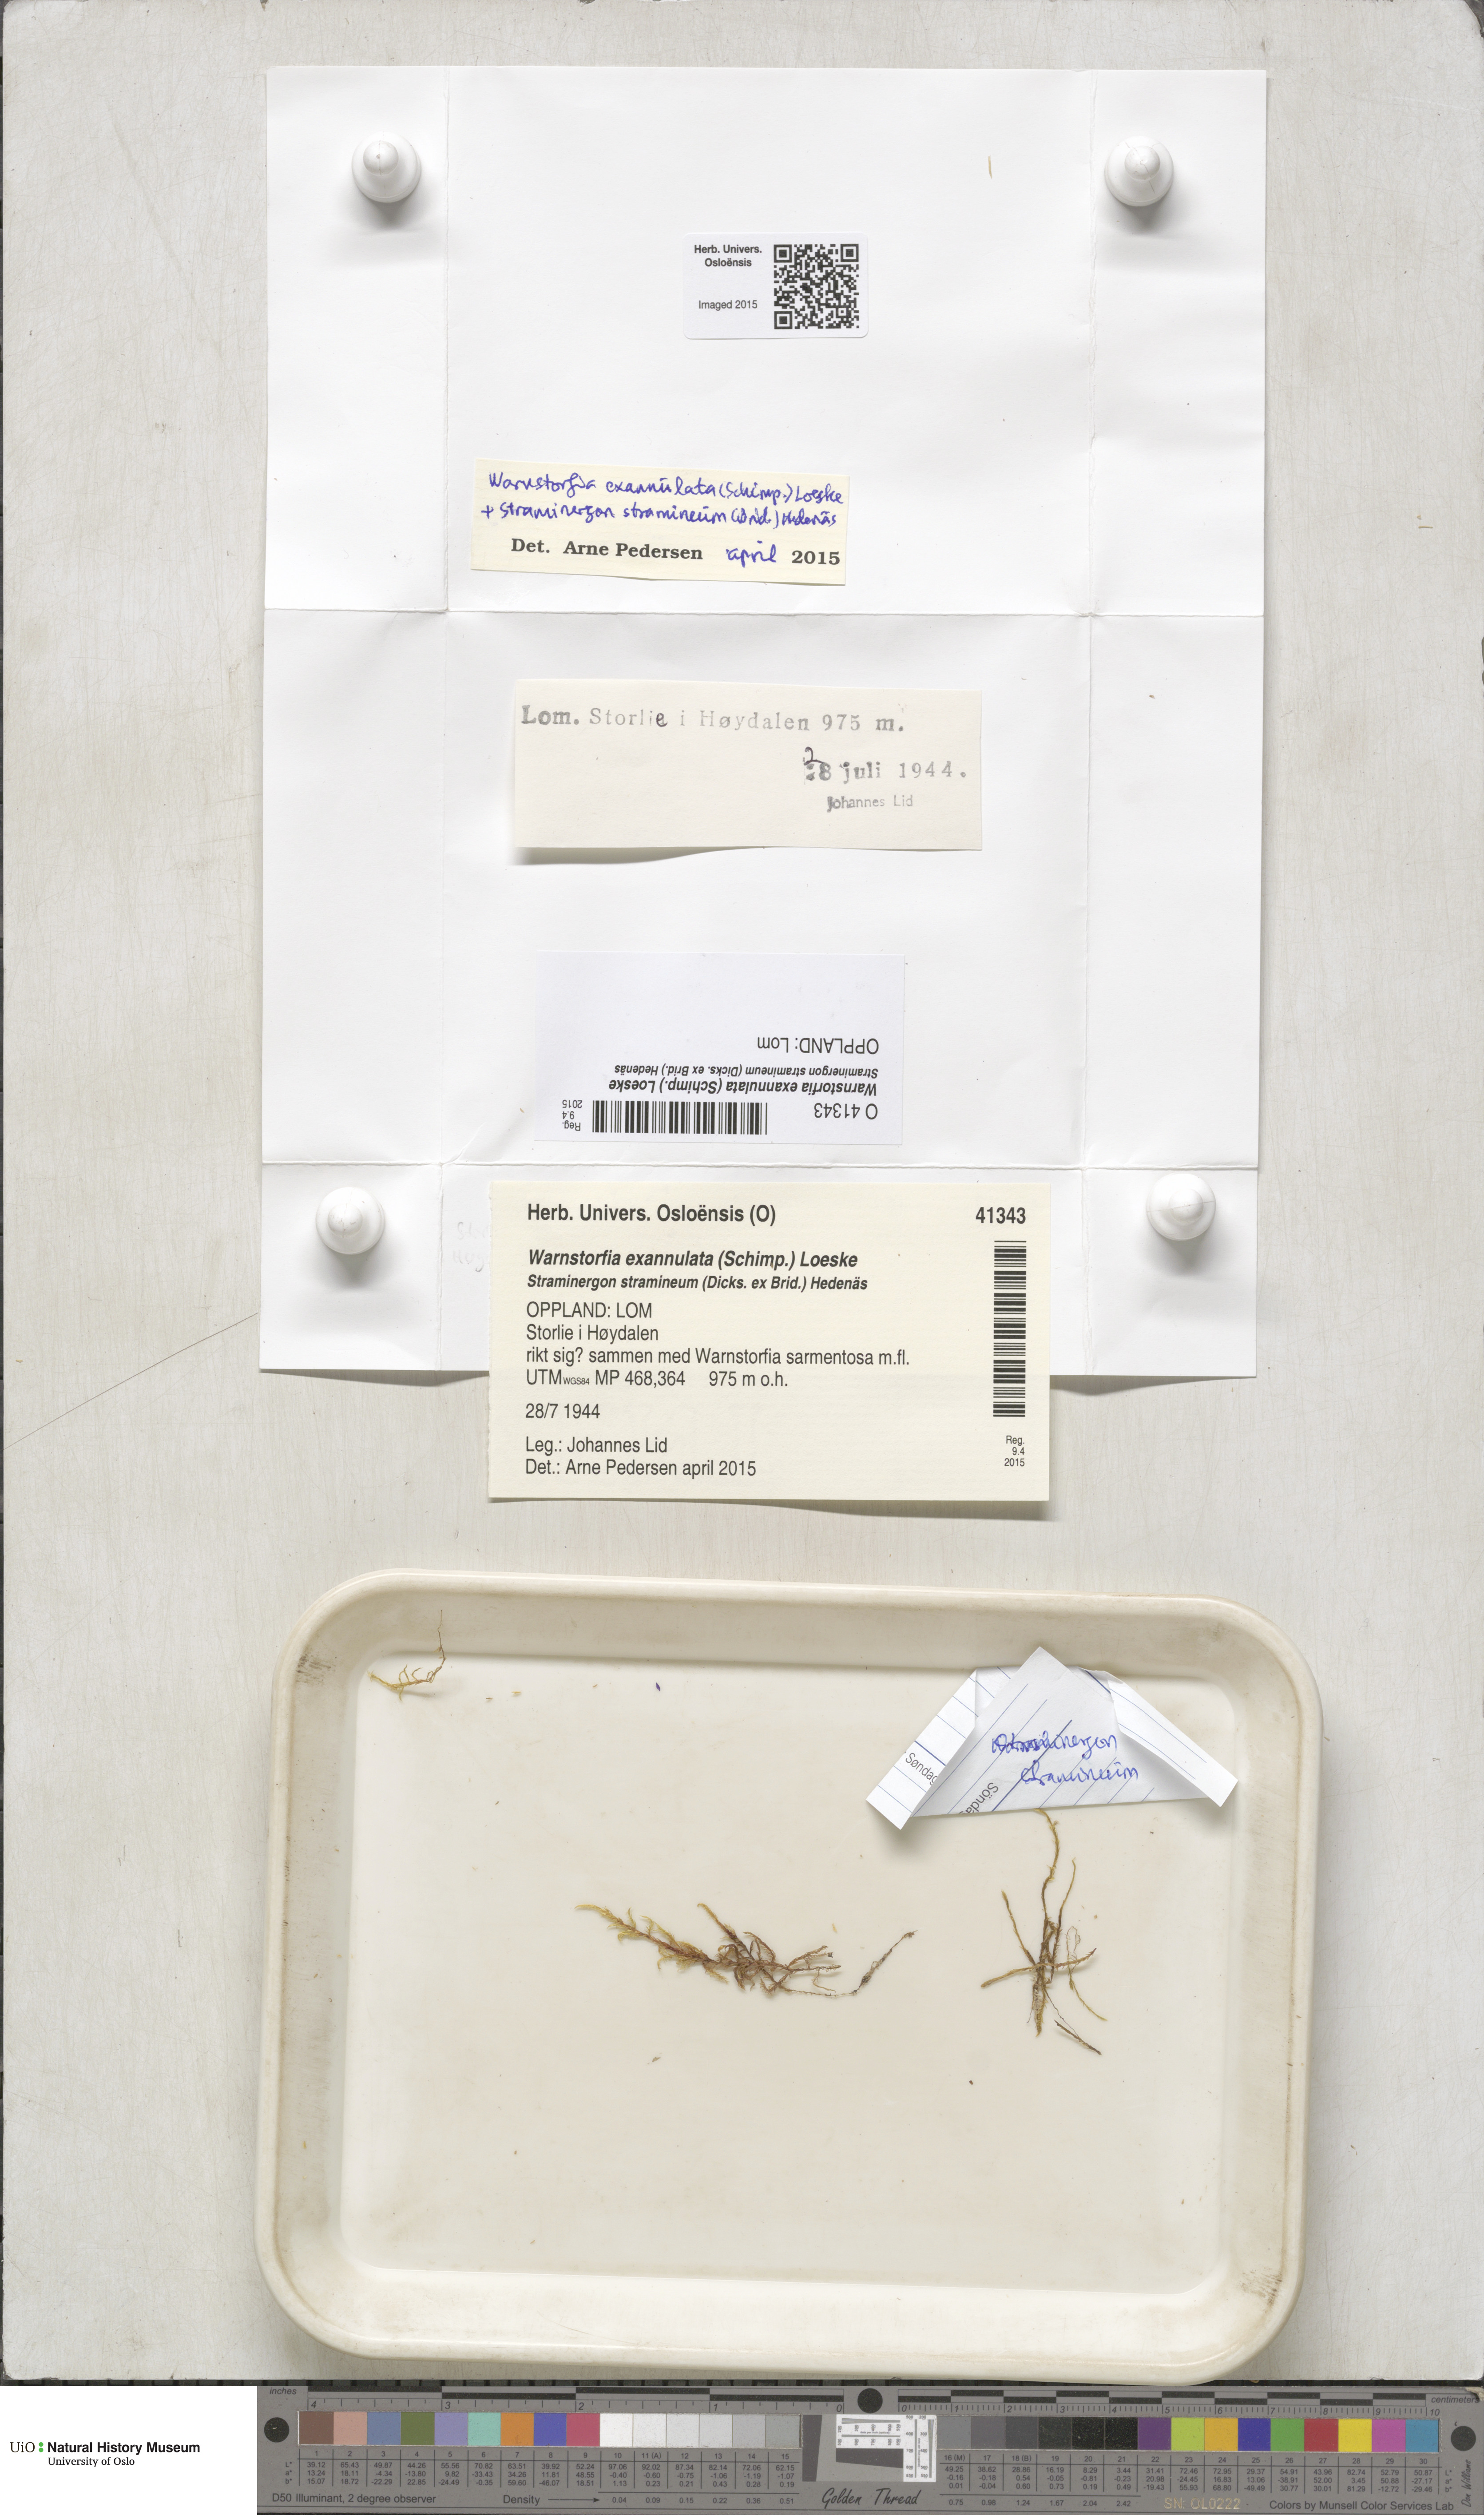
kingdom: Plantae
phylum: Bryophyta
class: Bryopsida
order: Hypnales
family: Calliergonaceae
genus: Sarmentypnum
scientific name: Sarmentypnum exannulatum
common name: Ringless spoon moss
